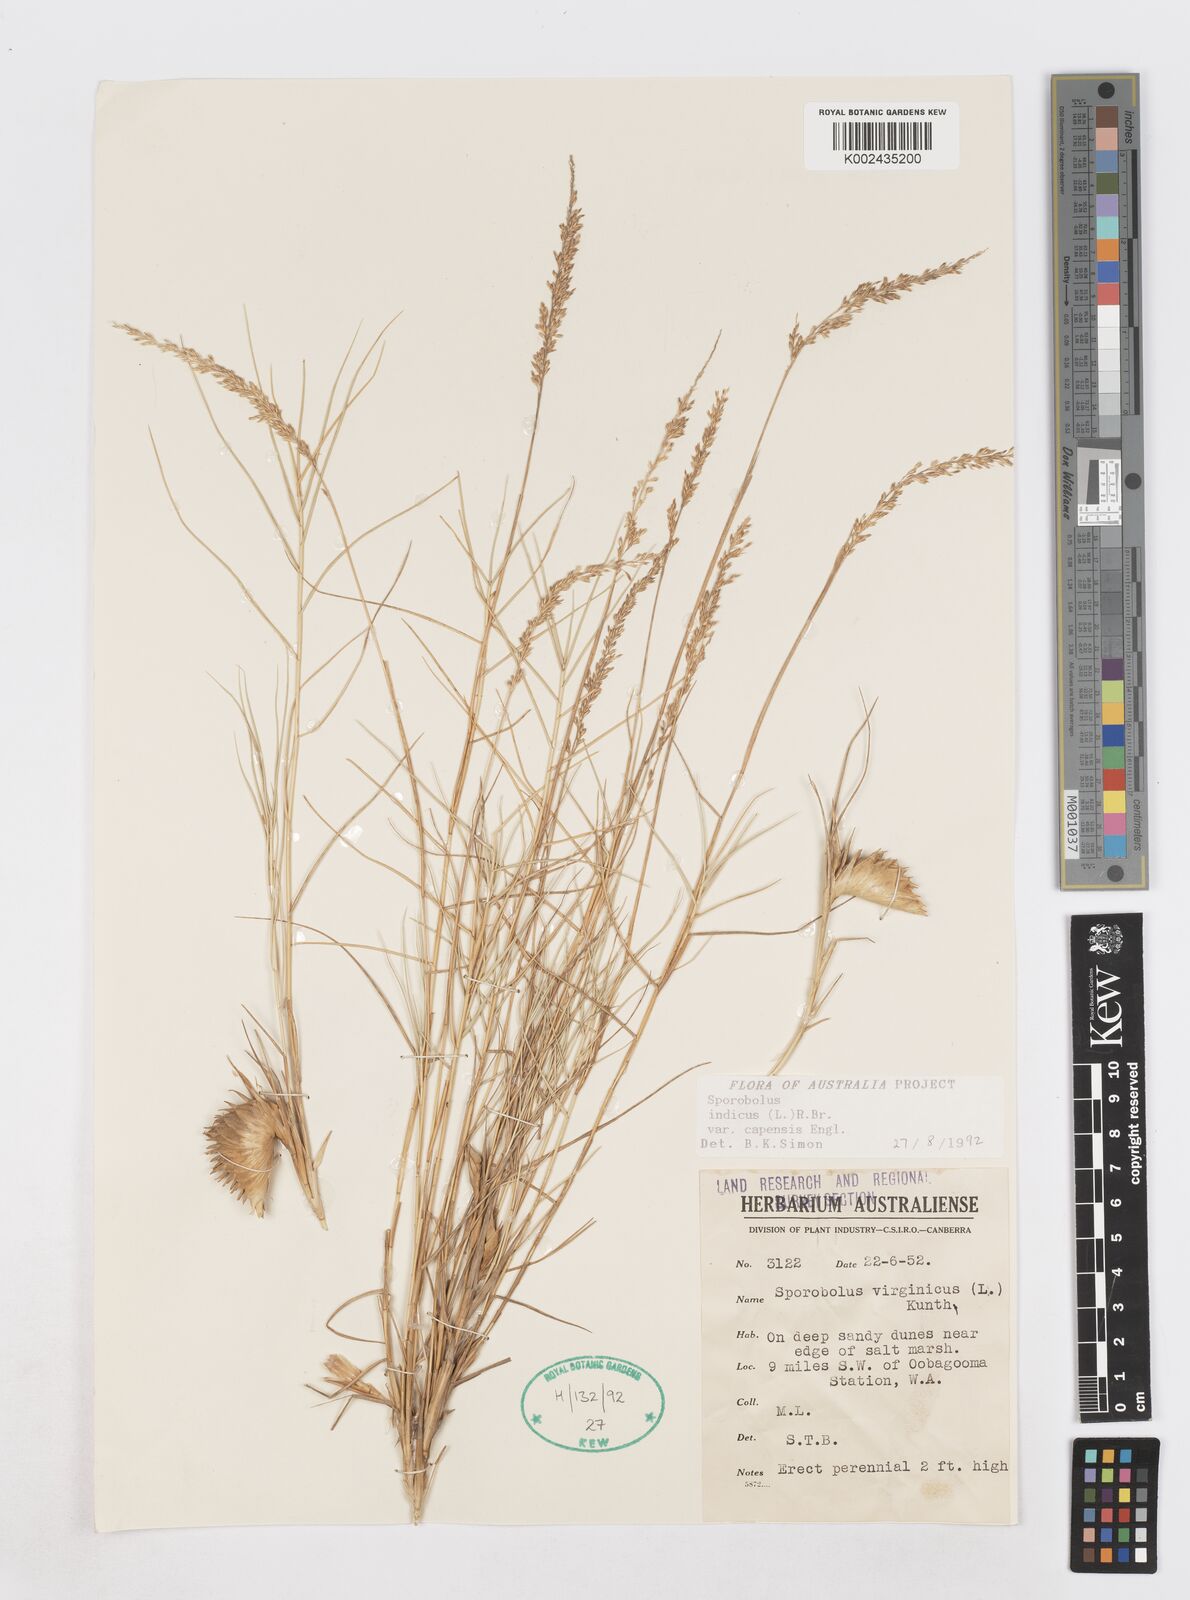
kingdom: Plantae
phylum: Tracheophyta
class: Liliopsida
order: Poales
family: Poaceae
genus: Sporobolus
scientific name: Sporobolus virginicus
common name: Beach dropseed
